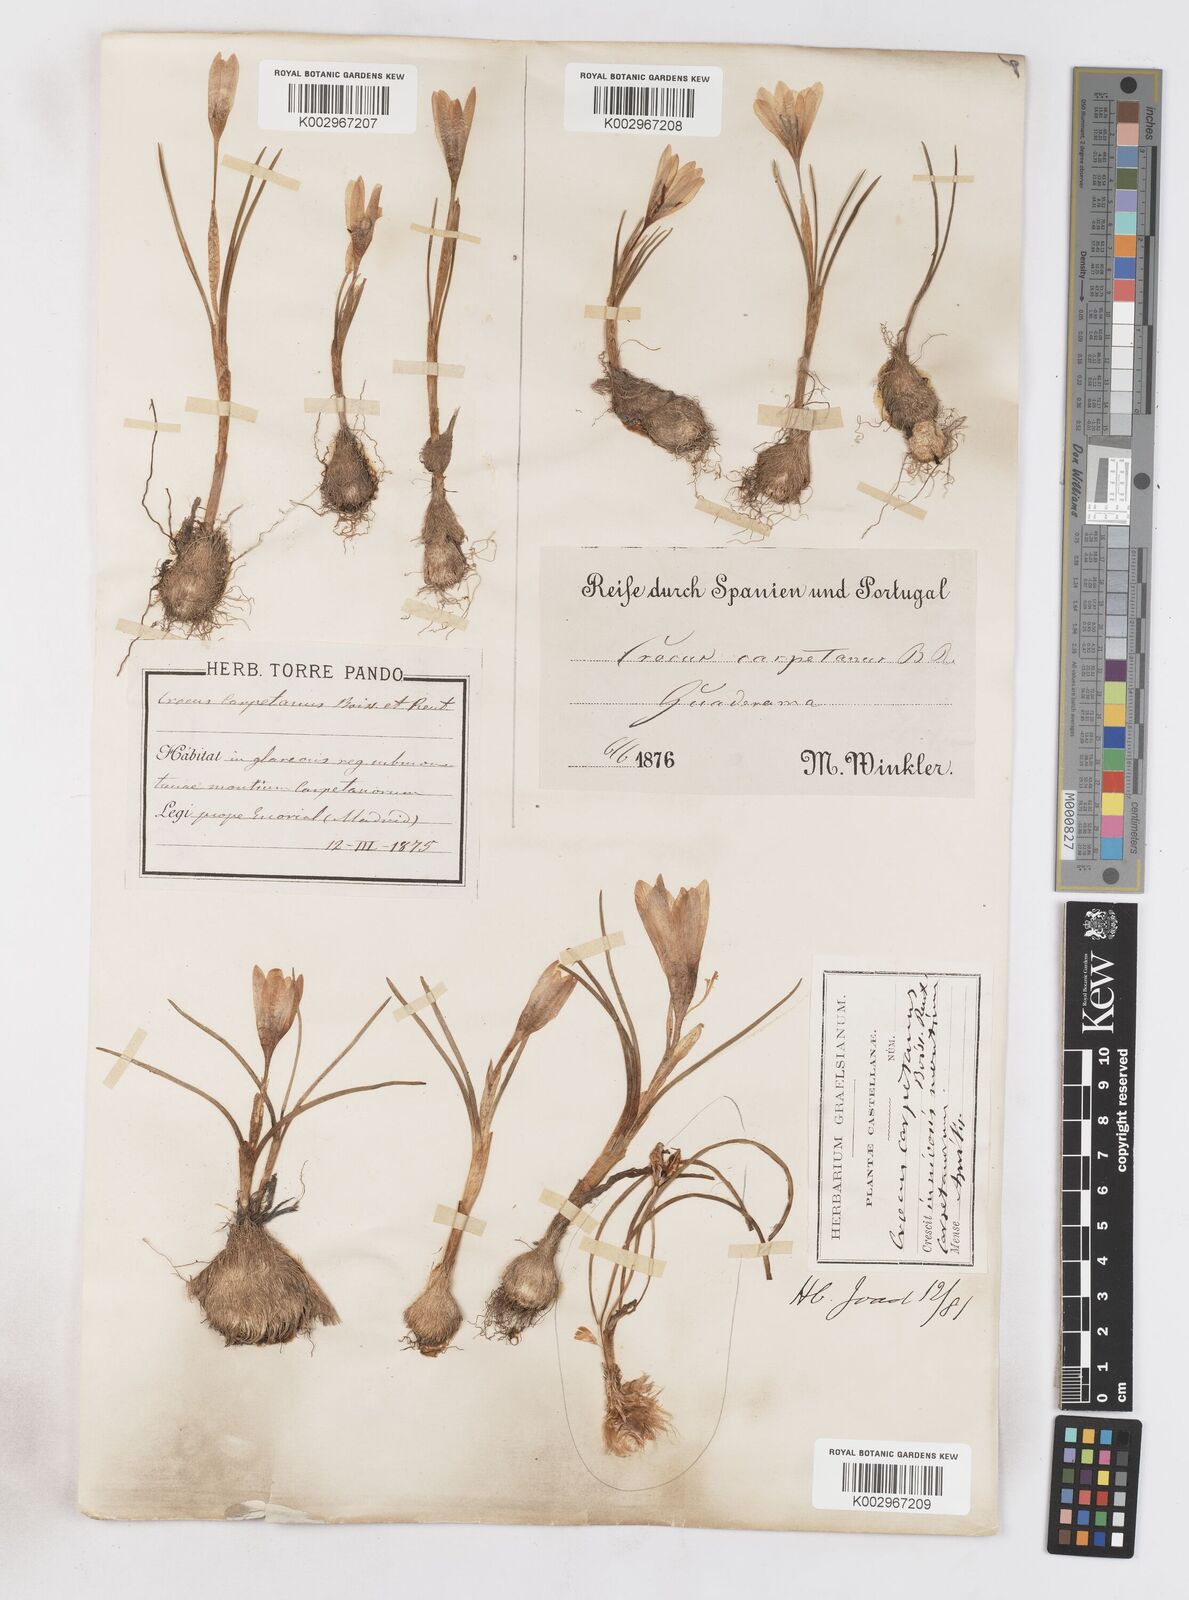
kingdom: Plantae
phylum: Tracheophyta
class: Liliopsida
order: Asparagales
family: Iridaceae
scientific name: Iridaceae
